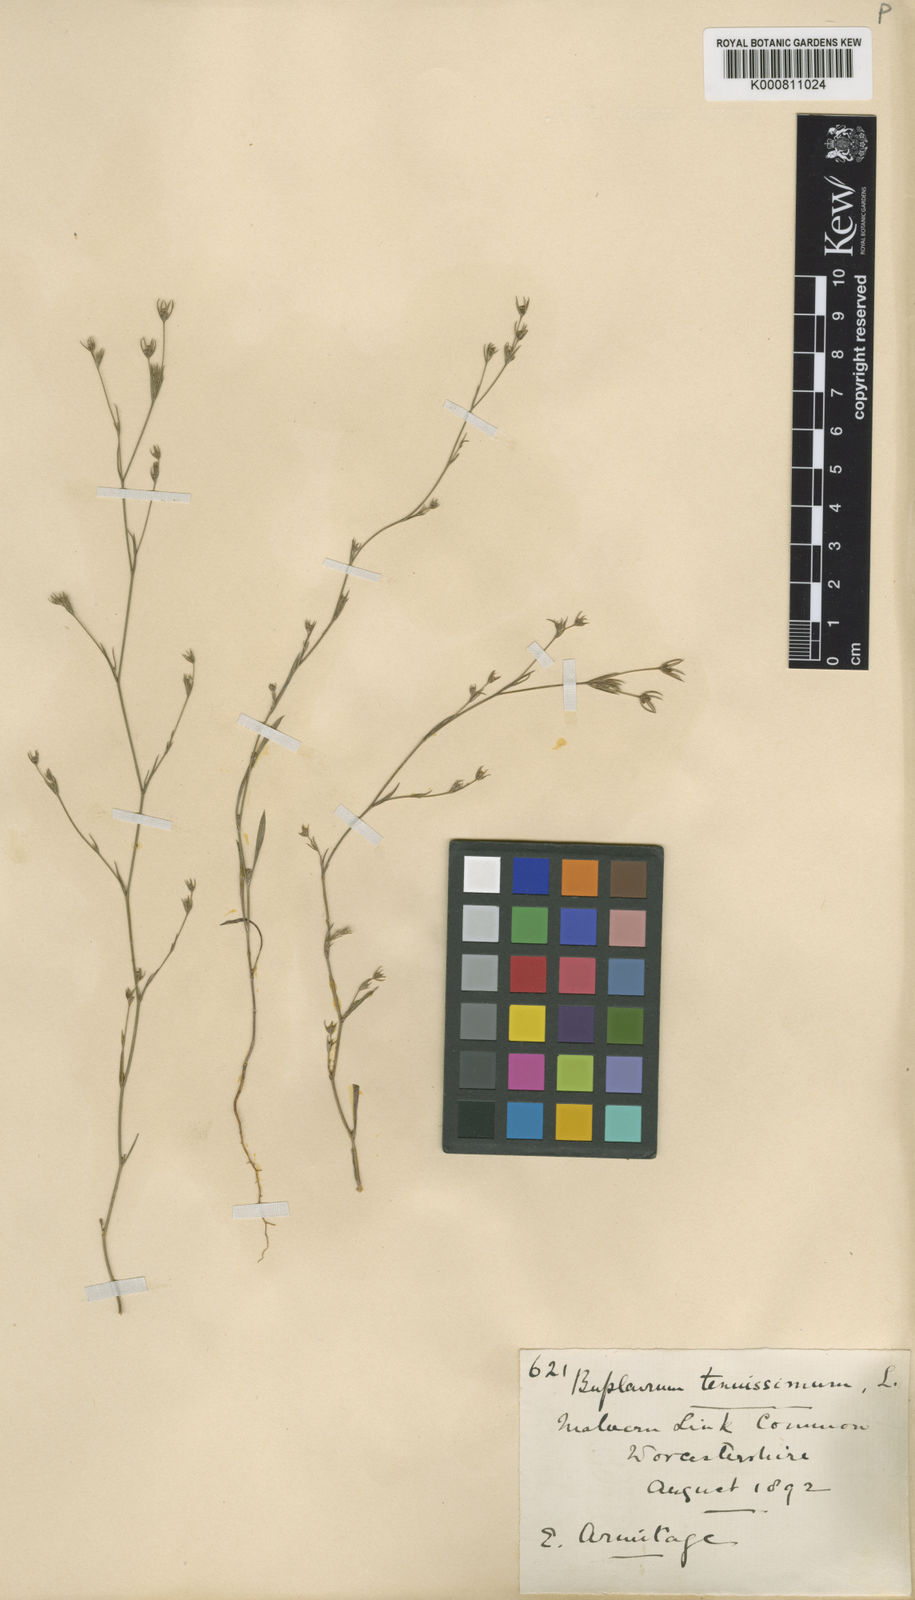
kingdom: Plantae
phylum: Tracheophyta
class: Magnoliopsida
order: Apiales
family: Apiaceae
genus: Bupleurum
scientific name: Bupleurum tenuissimum
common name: Slender hare's-ear
